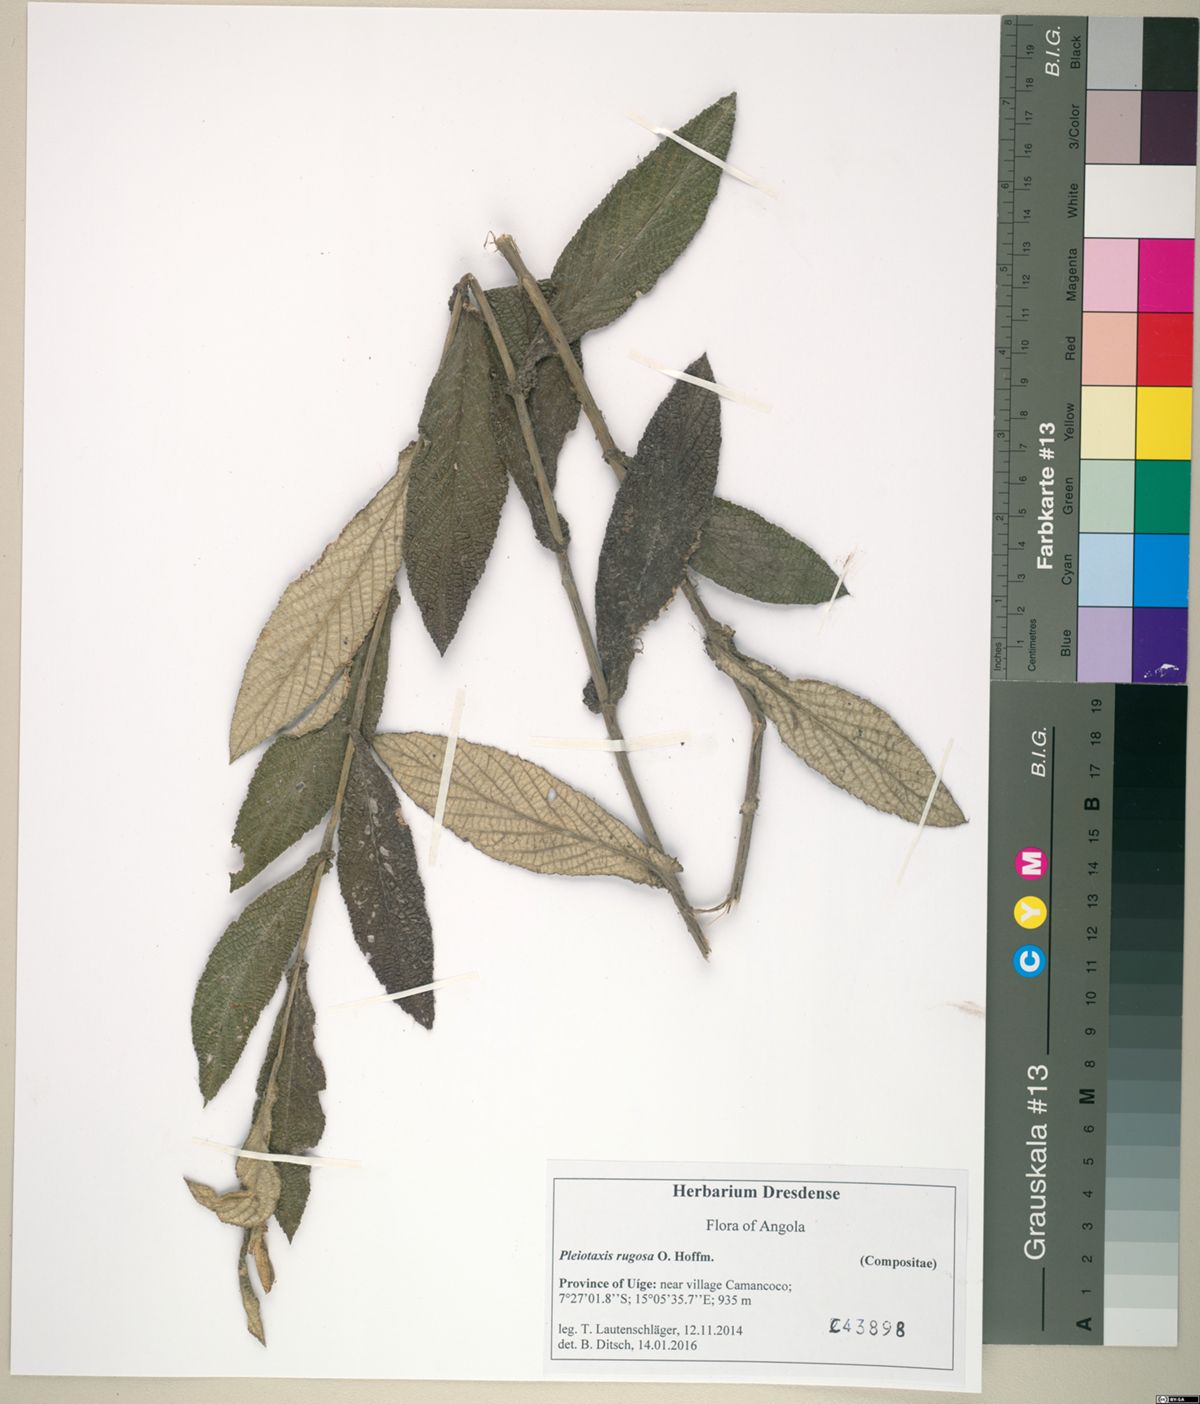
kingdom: Plantae
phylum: Tracheophyta
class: Magnoliopsida
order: Asterales
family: Asteraceae
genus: Pleiotaxis
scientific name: Pleiotaxis rugosa
